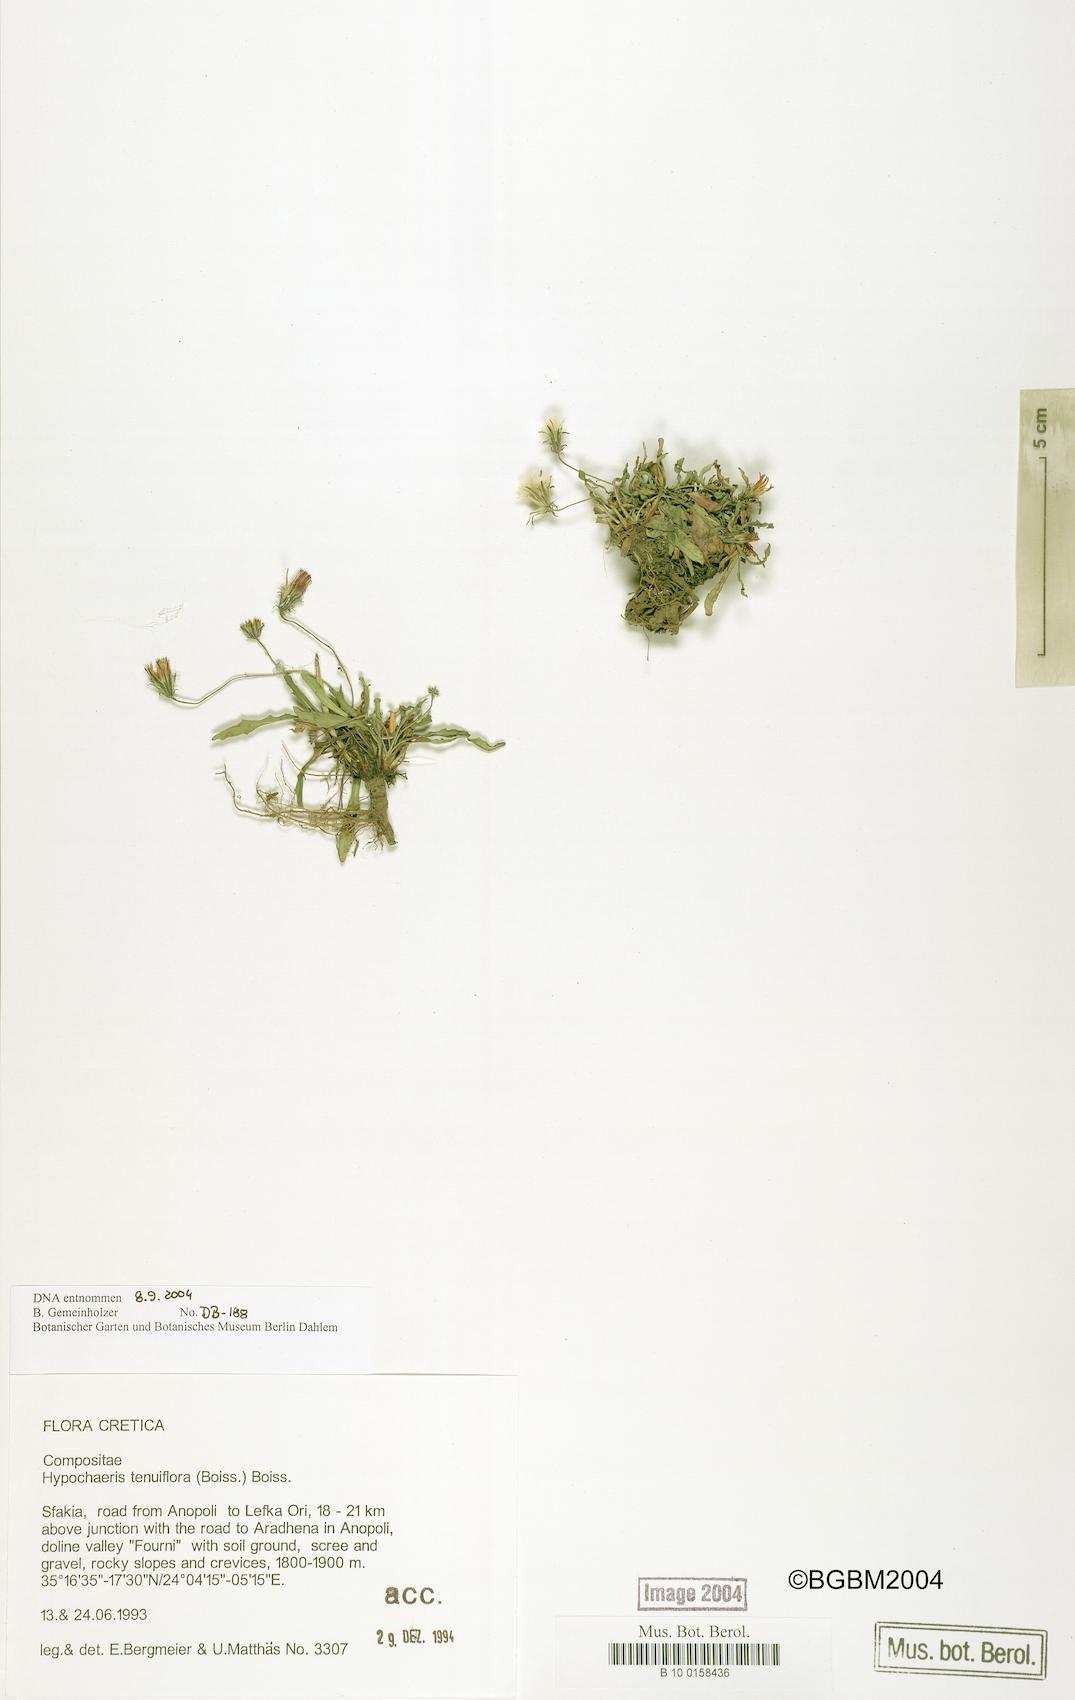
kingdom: Plantae
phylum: Tracheophyta
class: Magnoliopsida
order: Asterales
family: Asteraceae
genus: Hypochaeris
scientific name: Hypochaeris tenuiflora
